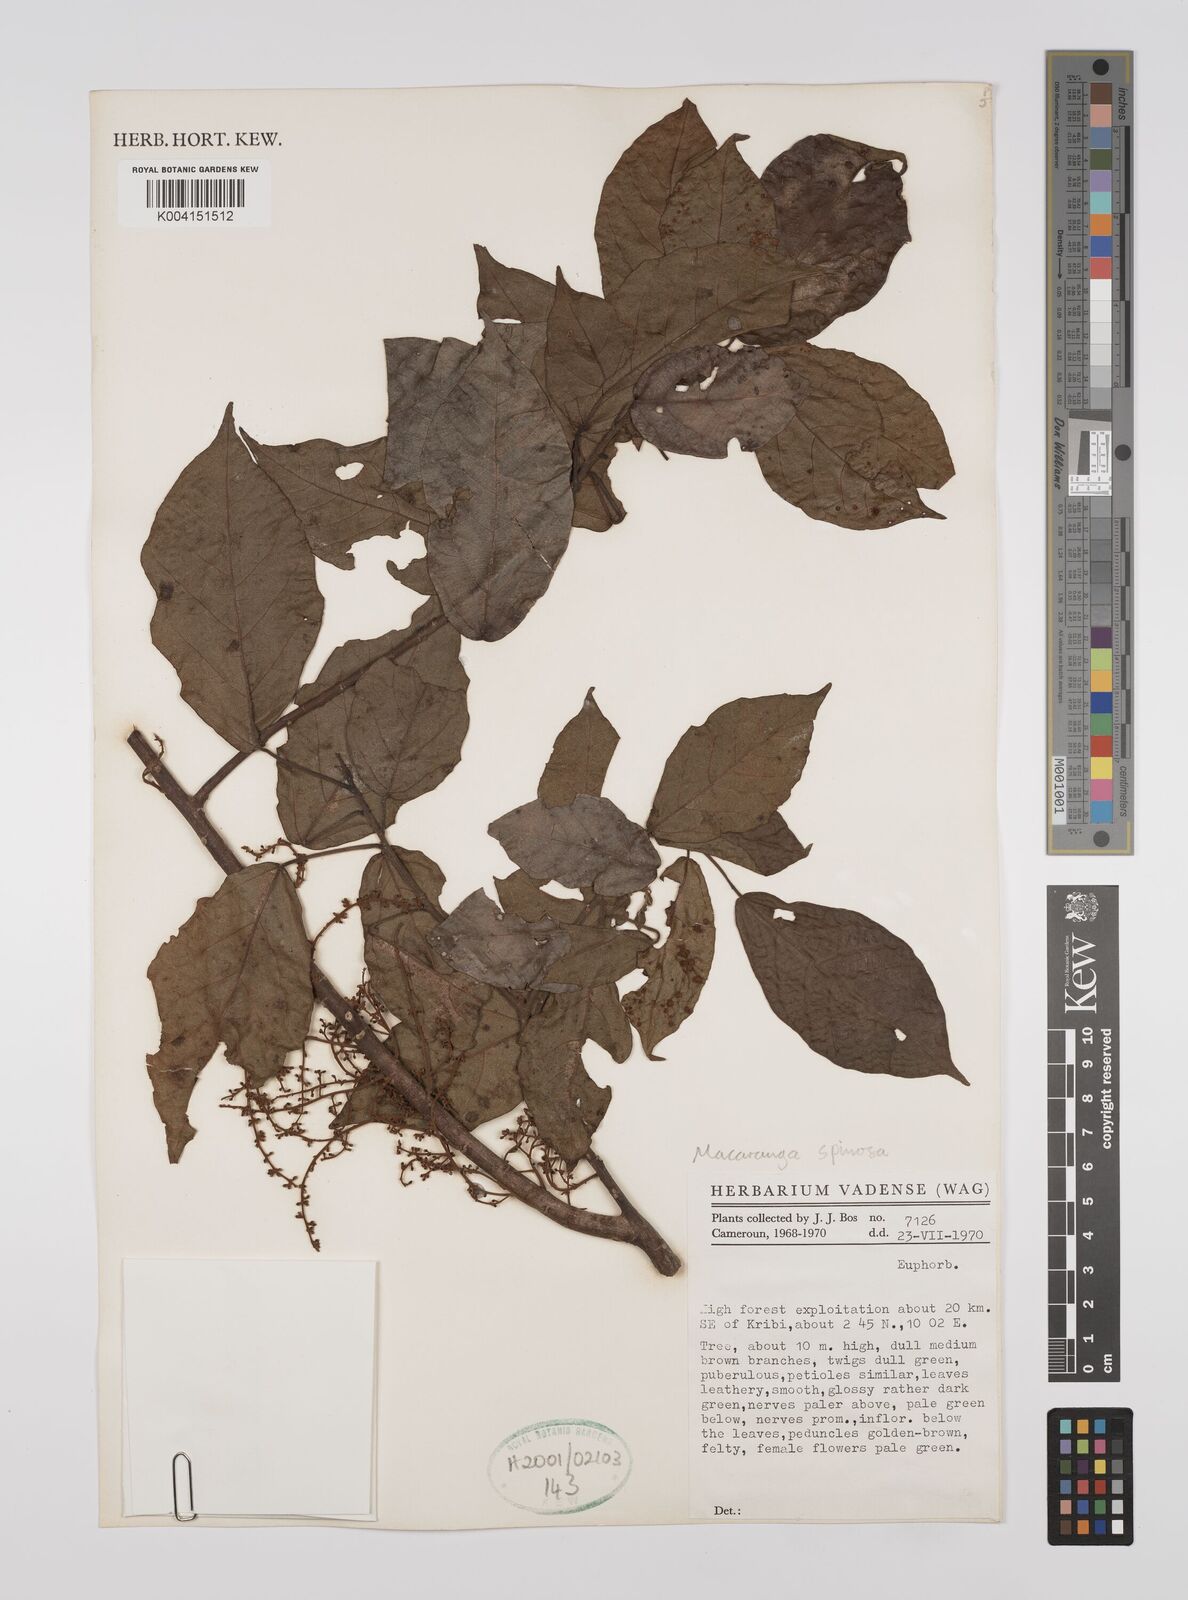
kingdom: Plantae
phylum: Tracheophyta
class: Magnoliopsida
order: Malpighiales
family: Euphorbiaceae
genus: Macaranga
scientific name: Macaranga spinosa
